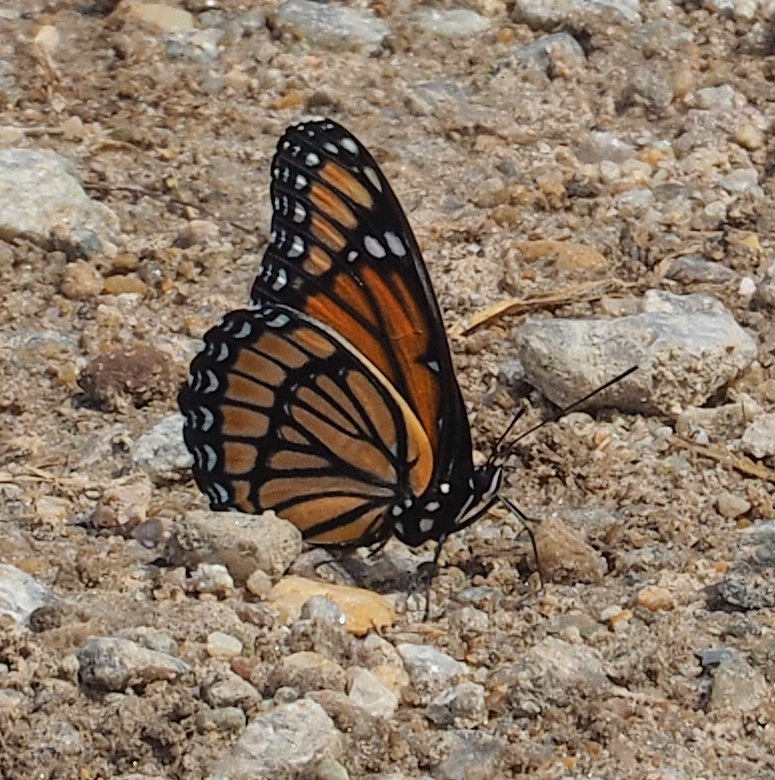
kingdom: Animalia
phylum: Arthropoda
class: Insecta
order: Lepidoptera
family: Nymphalidae
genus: Limenitis
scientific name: Limenitis archippus
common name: Viceroy
